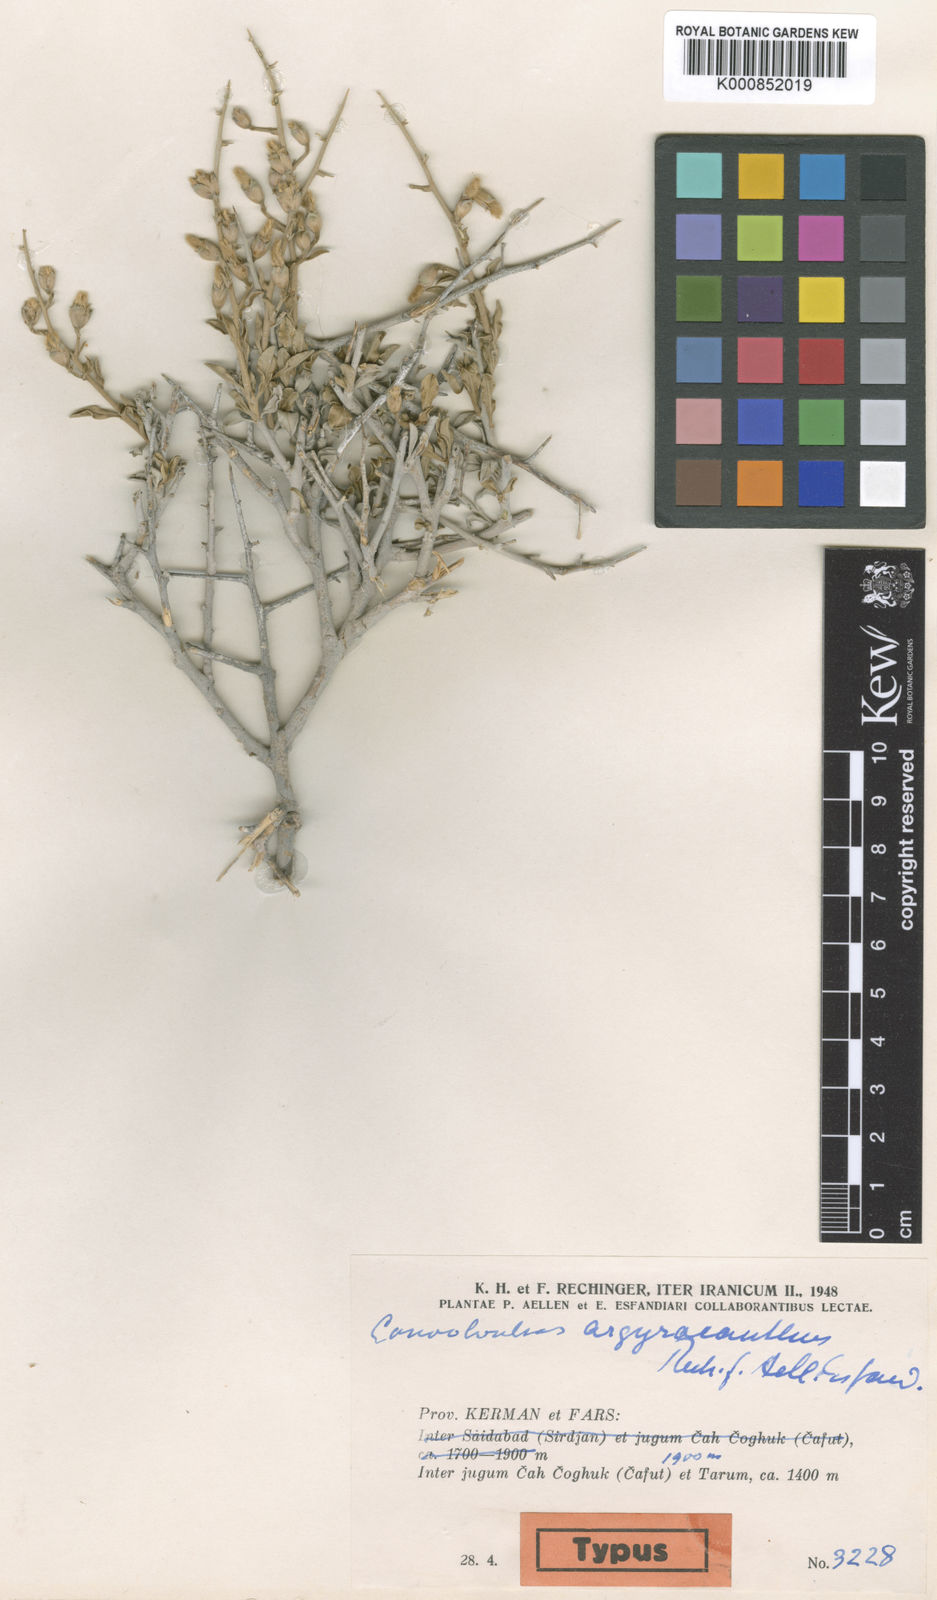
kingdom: Plantae
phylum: Tracheophyta
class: Magnoliopsida
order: Solanales
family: Convolvulaceae
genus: Convolvulus
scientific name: Convolvulus argyracanthus
